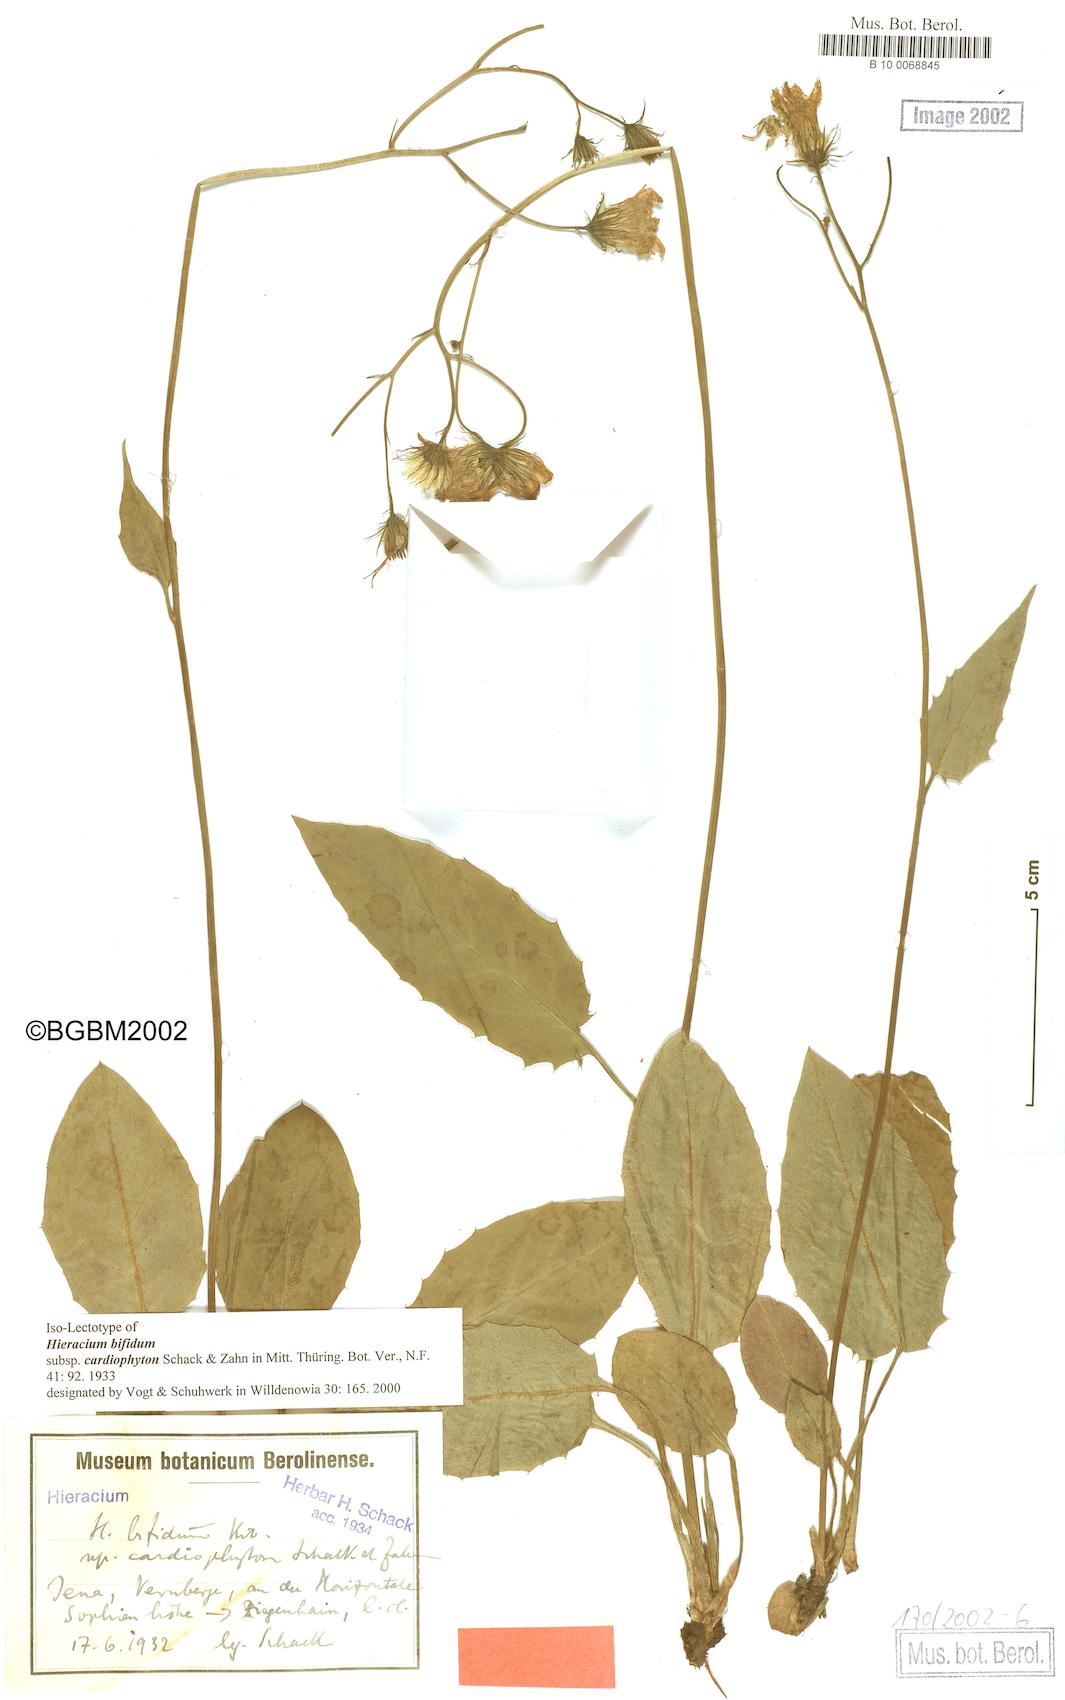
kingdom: Plantae
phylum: Tracheophyta
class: Magnoliopsida
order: Asterales
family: Asteraceae
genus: Hieracium
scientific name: Hieracium bifidum
